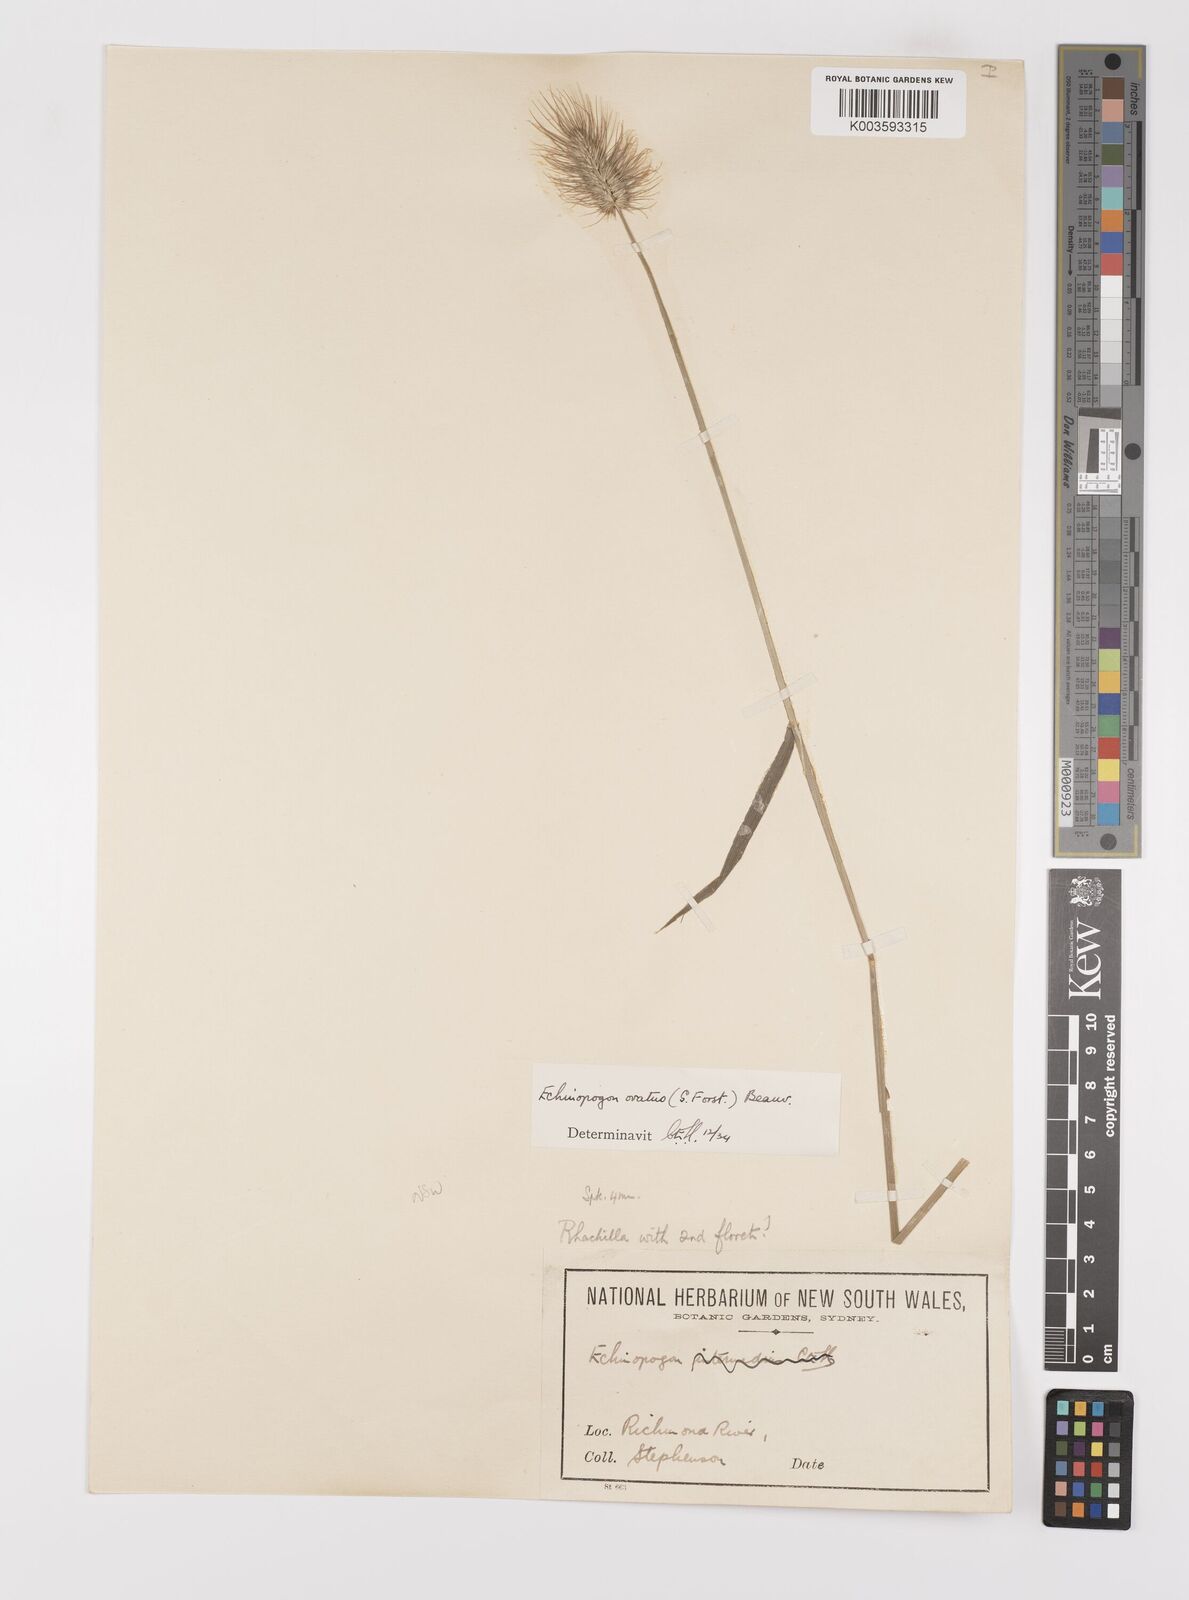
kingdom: Plantae
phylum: Tracheophyta
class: Liliopsida
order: Poales
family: Poaceae
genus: Echinopogon
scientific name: Echinopogon ovatus
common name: Hedgehog-grass
